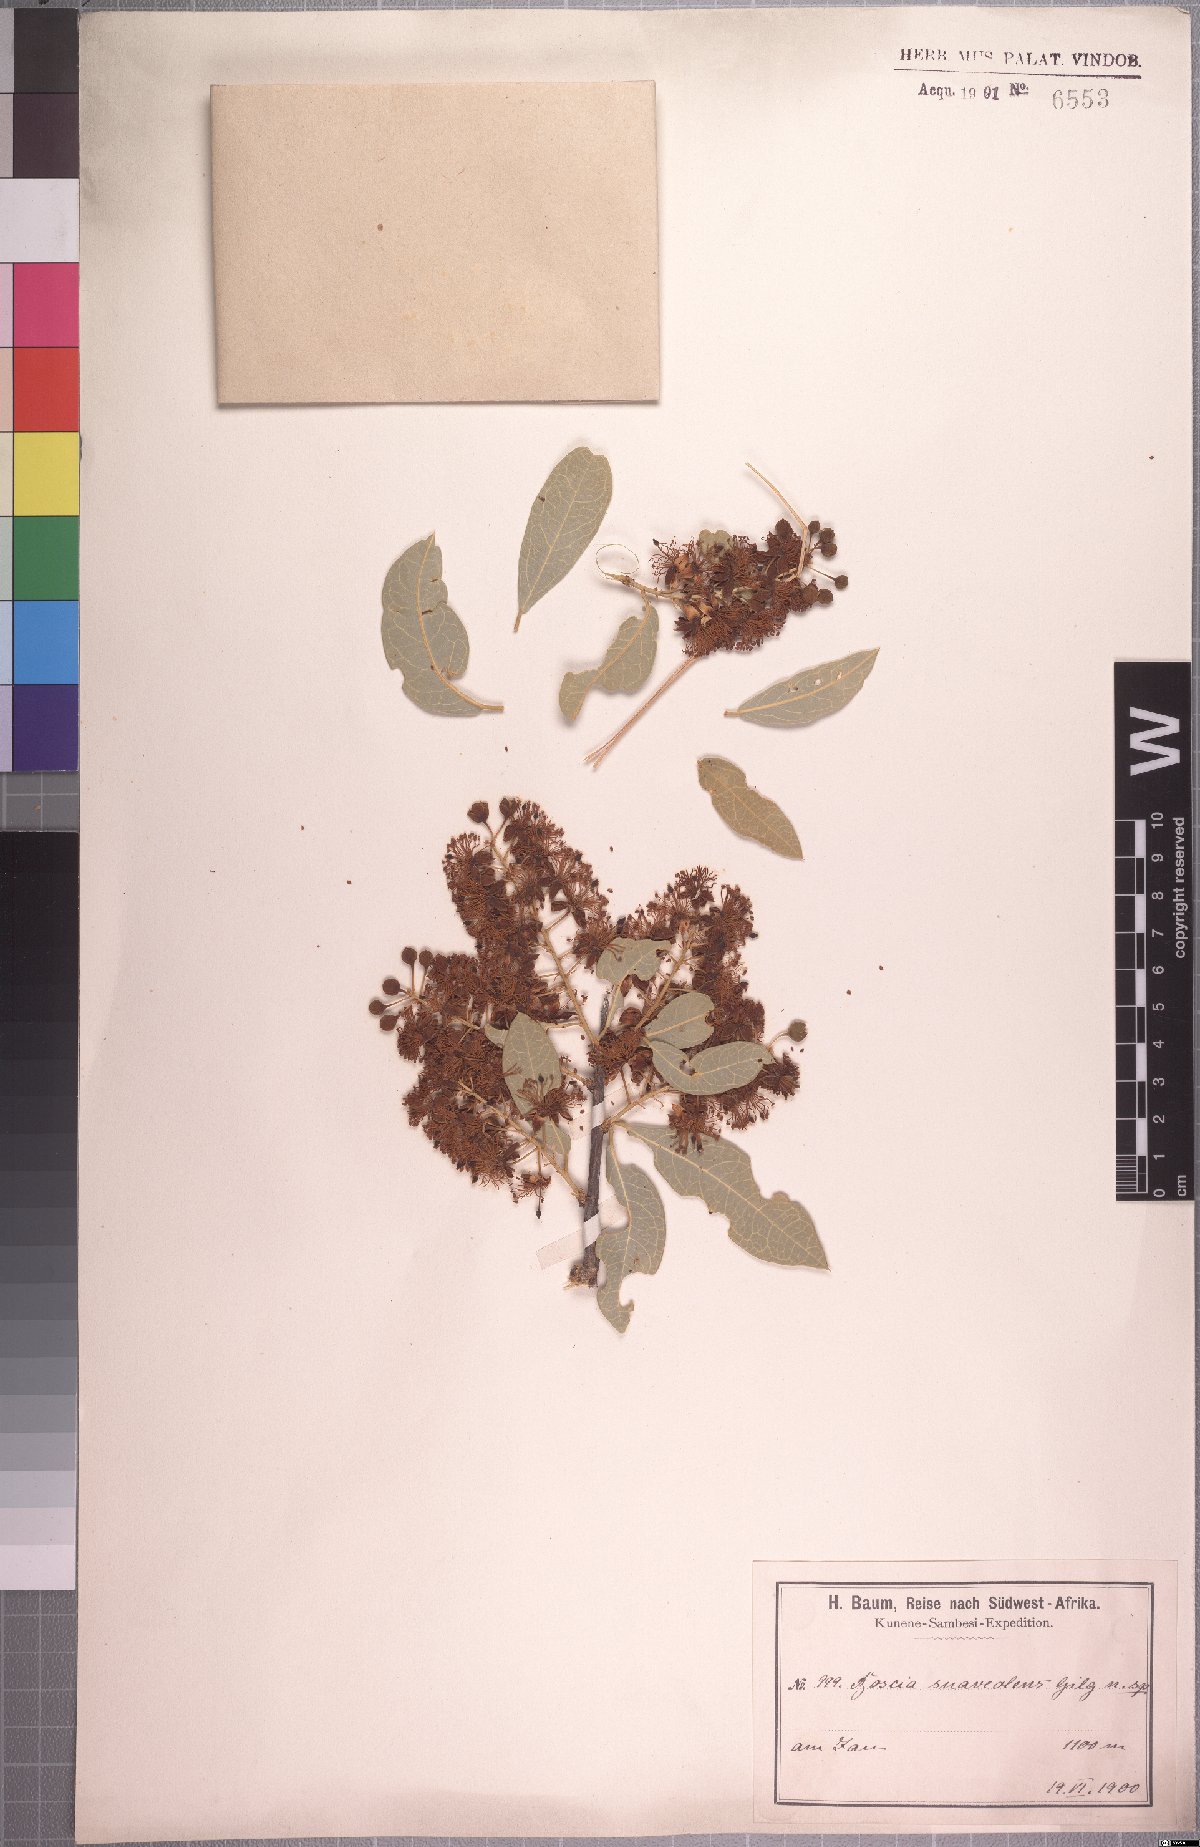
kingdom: Plantae
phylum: Tracheophyta
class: Magnoliopsida
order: Brassicales
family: Capparaceae
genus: Boscia
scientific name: Boscia welwitschii
